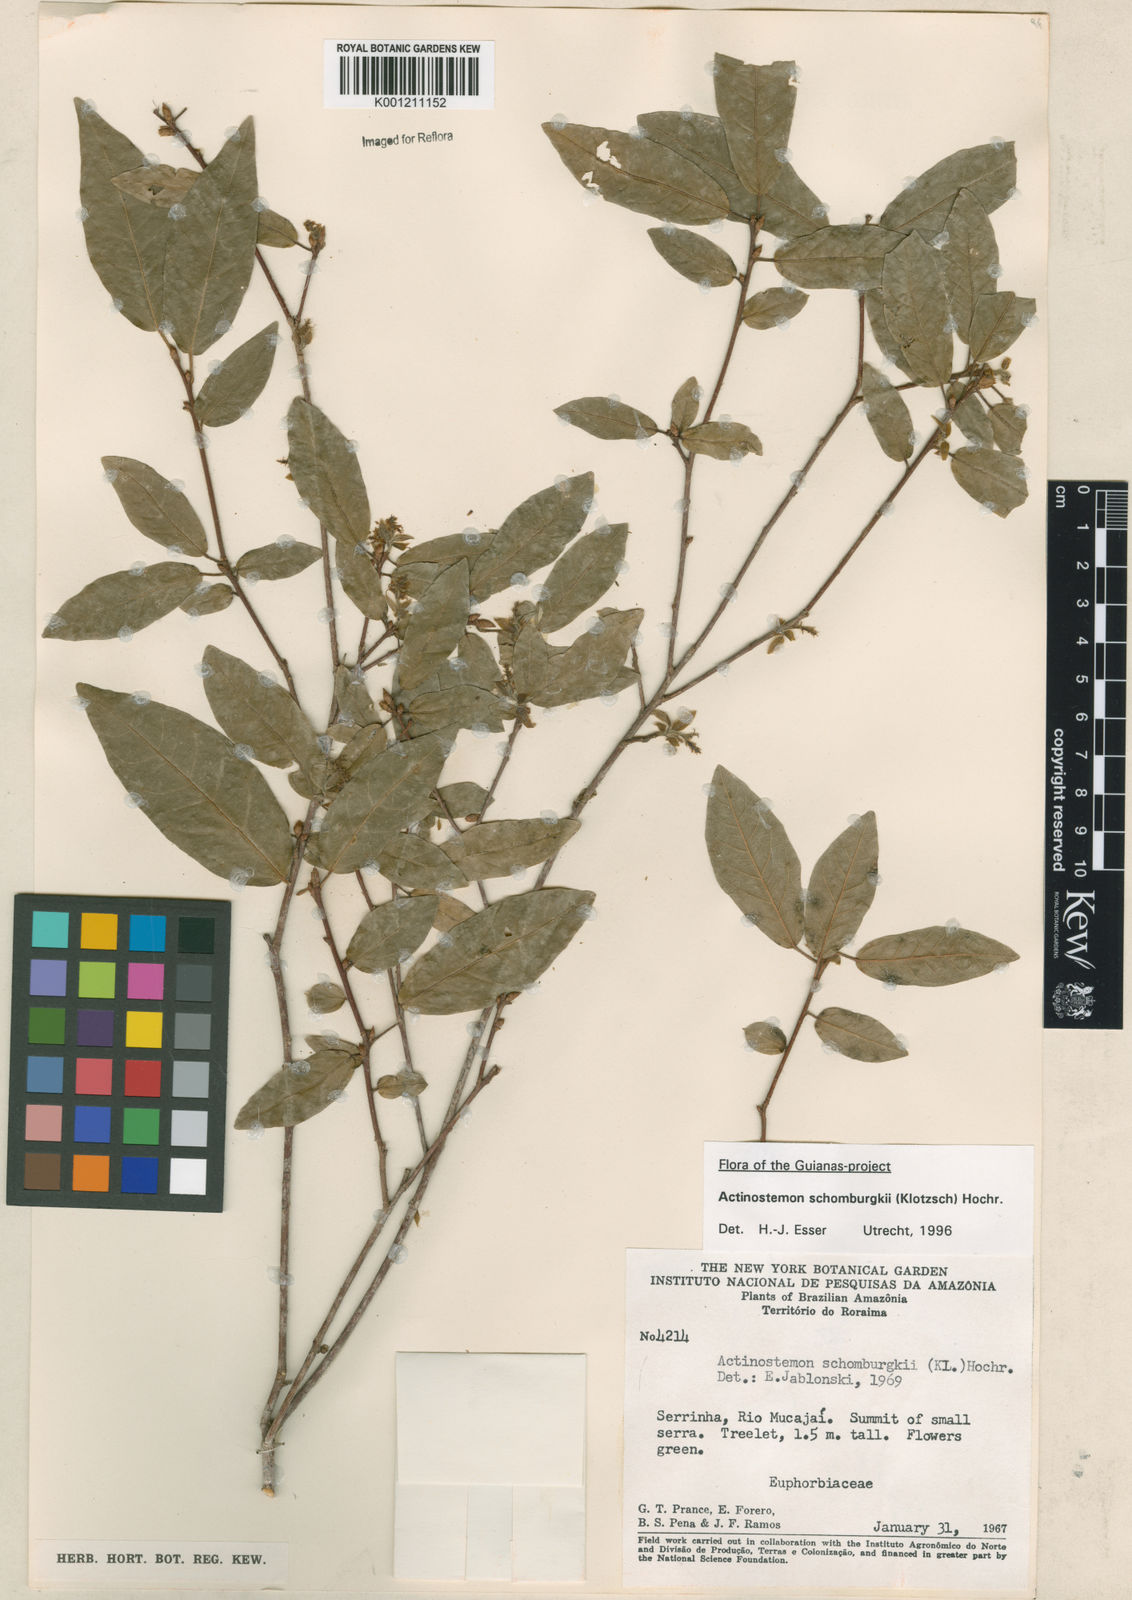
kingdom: Plantae
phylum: Tracheophyta
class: Magnoliopsida
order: Malpighiales
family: Euphorbiaceae
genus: Actinostemon
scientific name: Actinostemon schomburgkii
